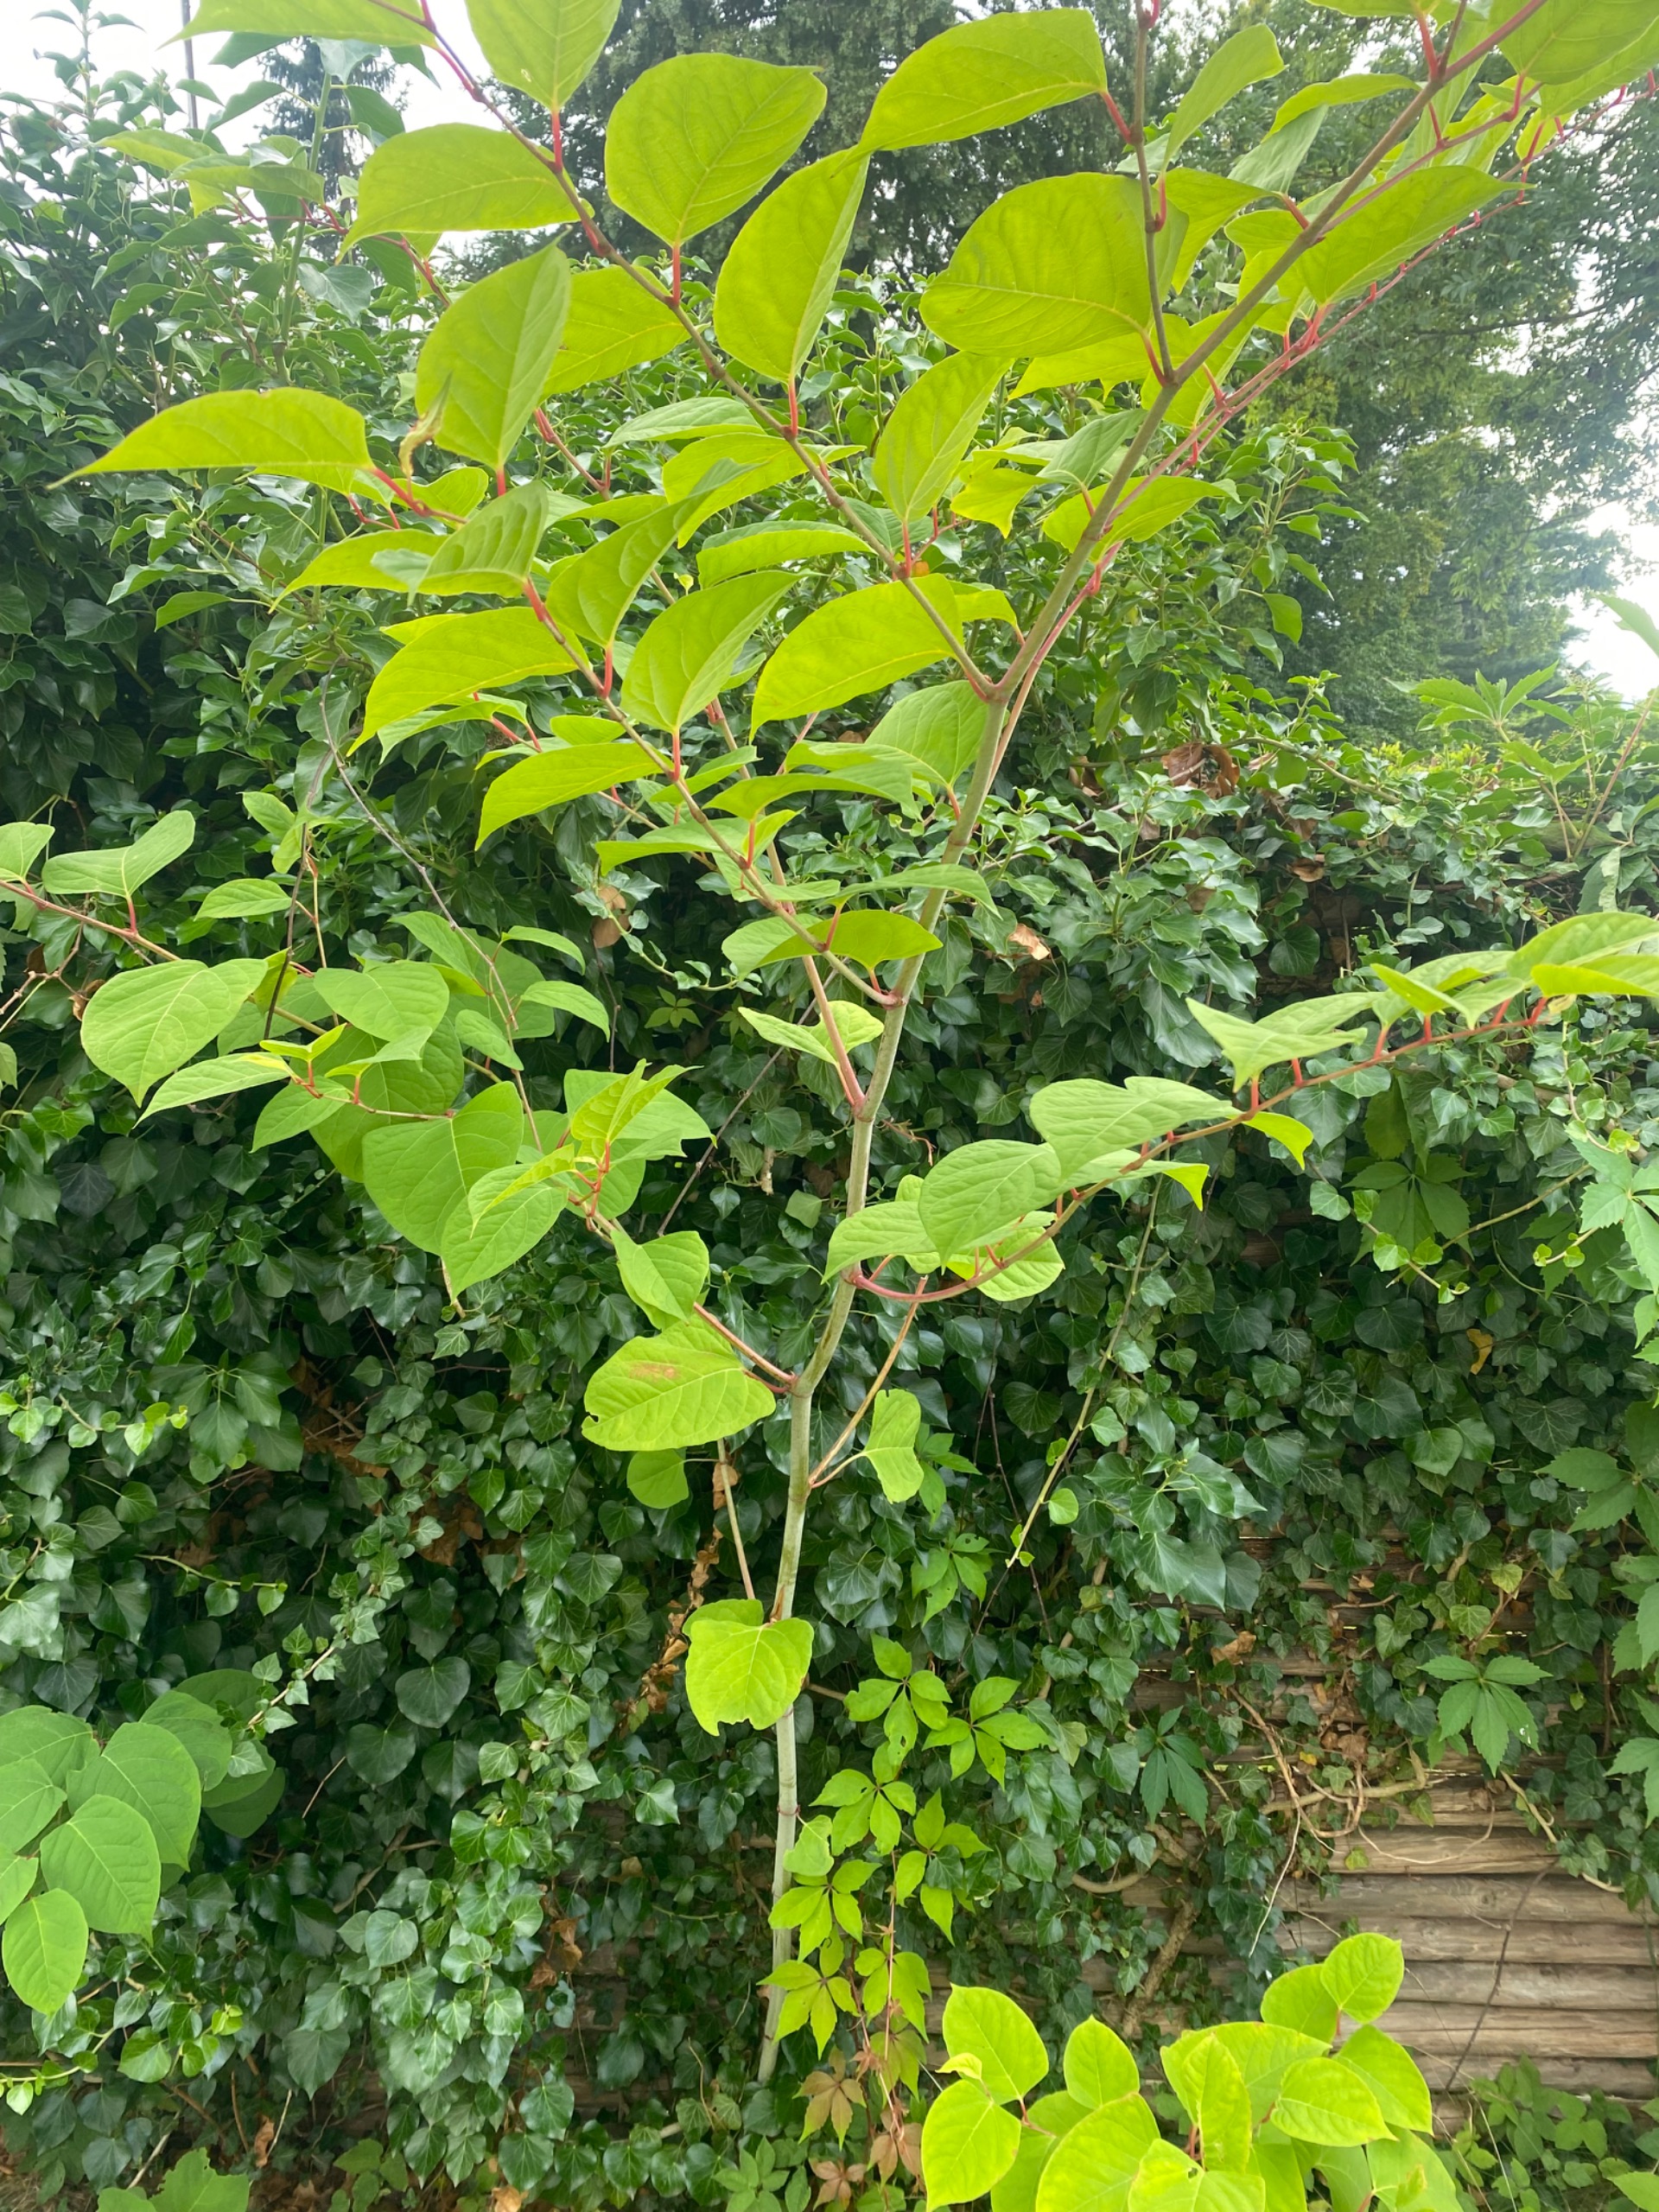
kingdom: Plantae
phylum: Tracheophyta
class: Magnoliopsida
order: Caryophyllales
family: Polygonaceae
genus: Reynoutria
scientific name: Reynoutria japonica
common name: Japan-pileurt
